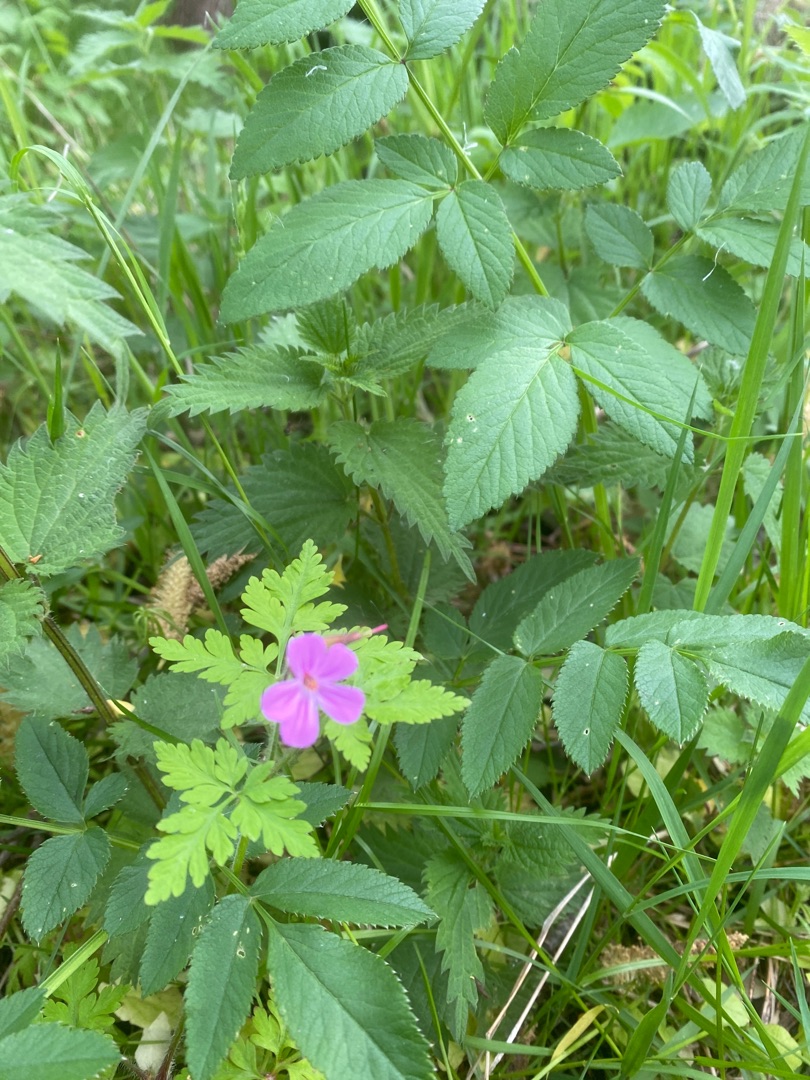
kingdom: Plantae
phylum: Tracheophyta
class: Magnoliopsida
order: Geraniales
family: Geraniaceae
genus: Geranium
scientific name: Geranium robertianum
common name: Stinkende storkenæb
